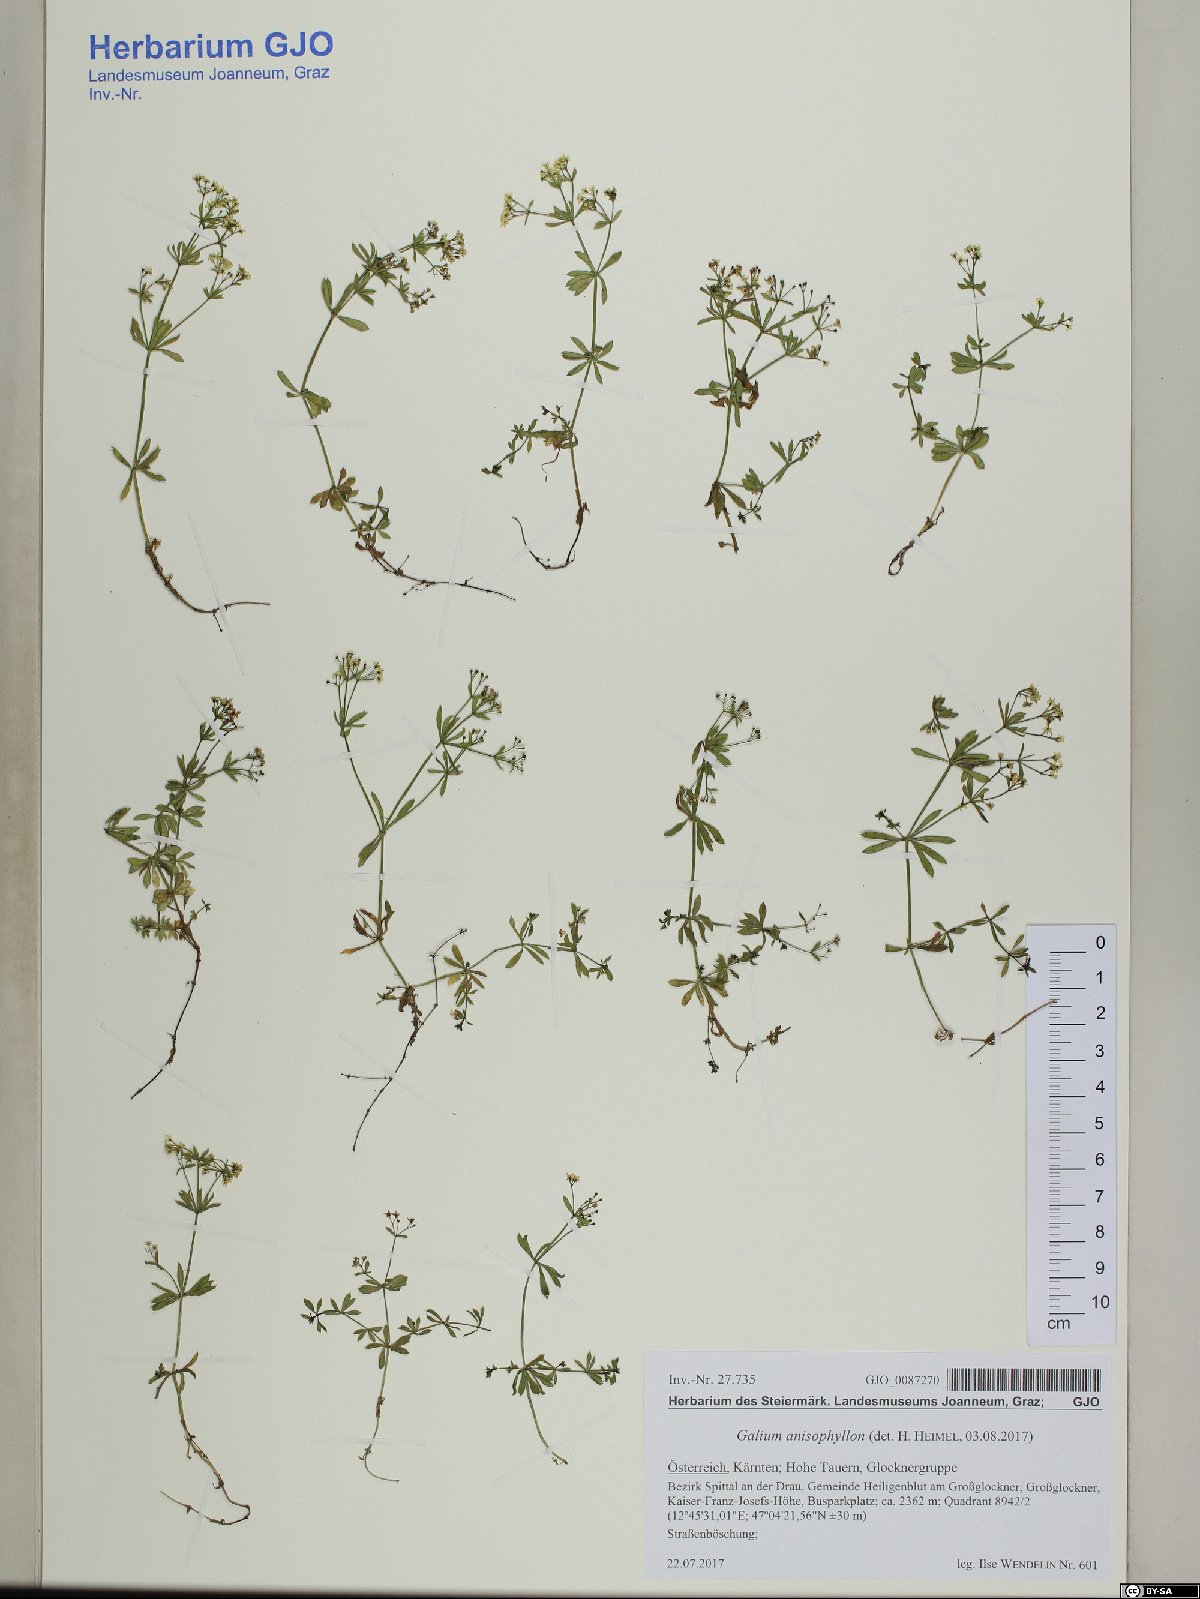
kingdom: Plantae
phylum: Tracheophyta
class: Magnoliopsida
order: Gentianales
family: Rubiaceae
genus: Galium
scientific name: Galium anisophyllon
